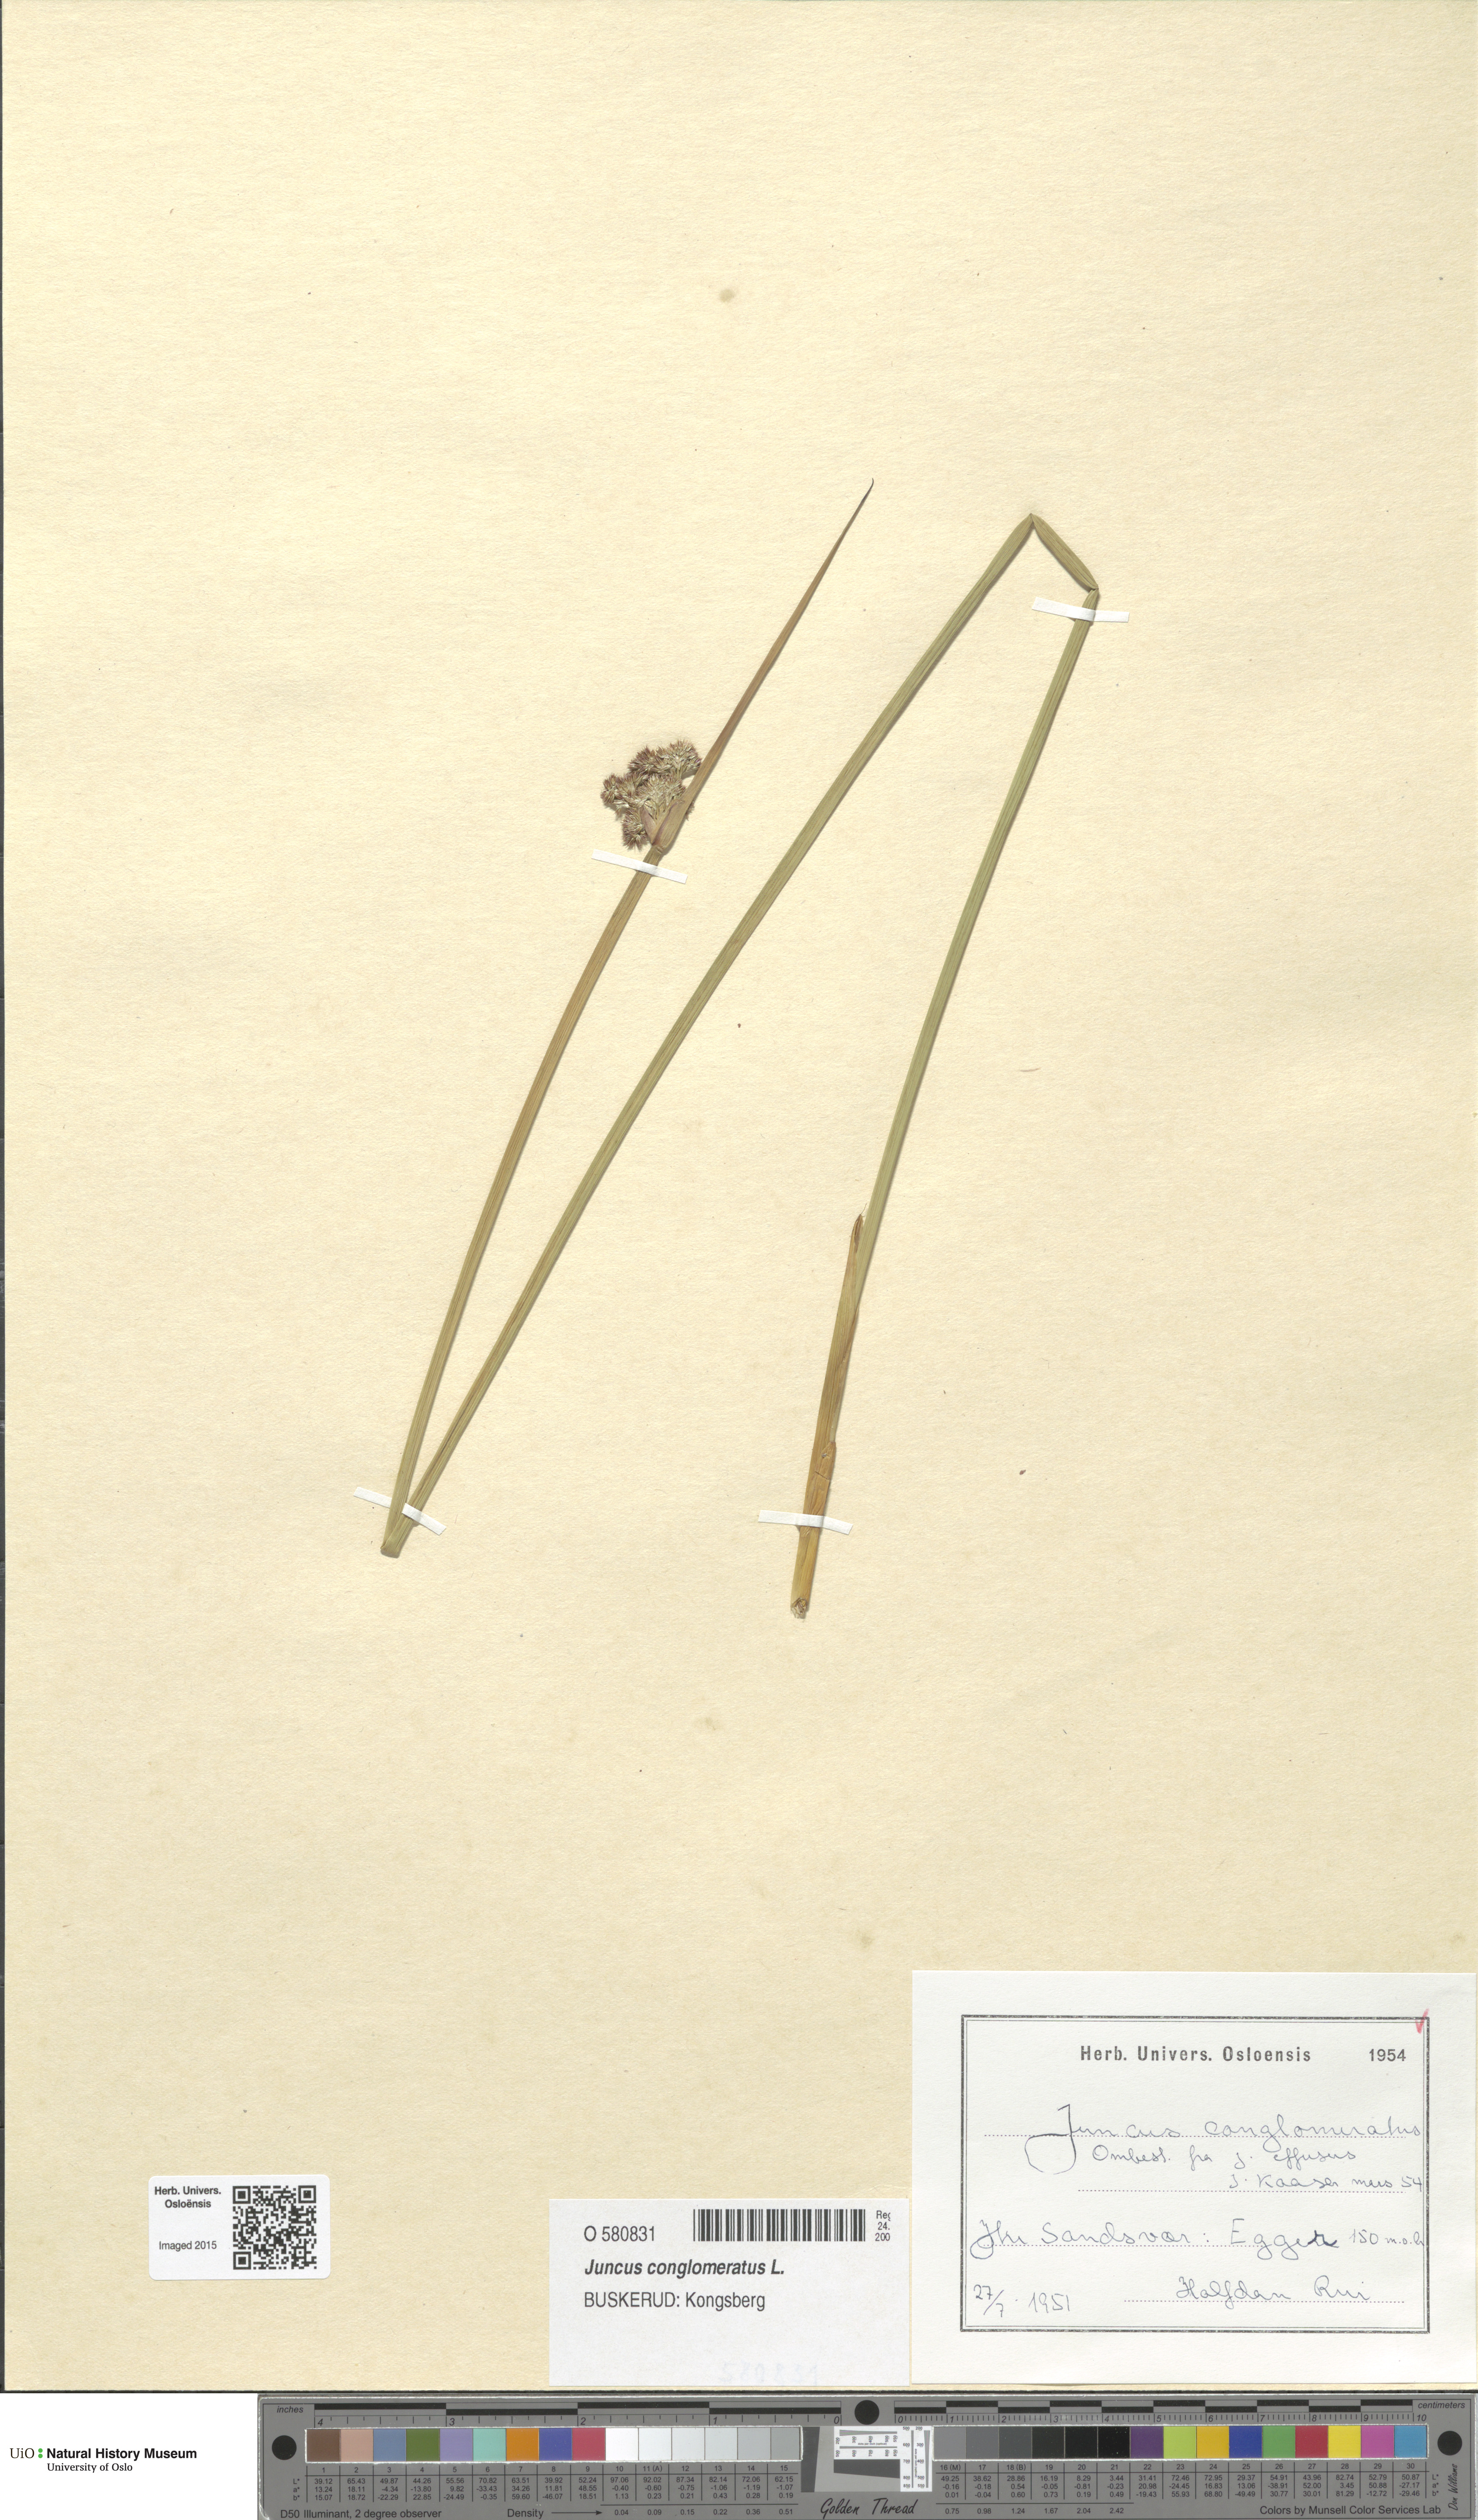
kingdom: Plantae
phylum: Tracheophyta
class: Liliopsida
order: Poales
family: Juncaceae
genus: Juncus
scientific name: Juncus conglomeratus
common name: Compact rush
